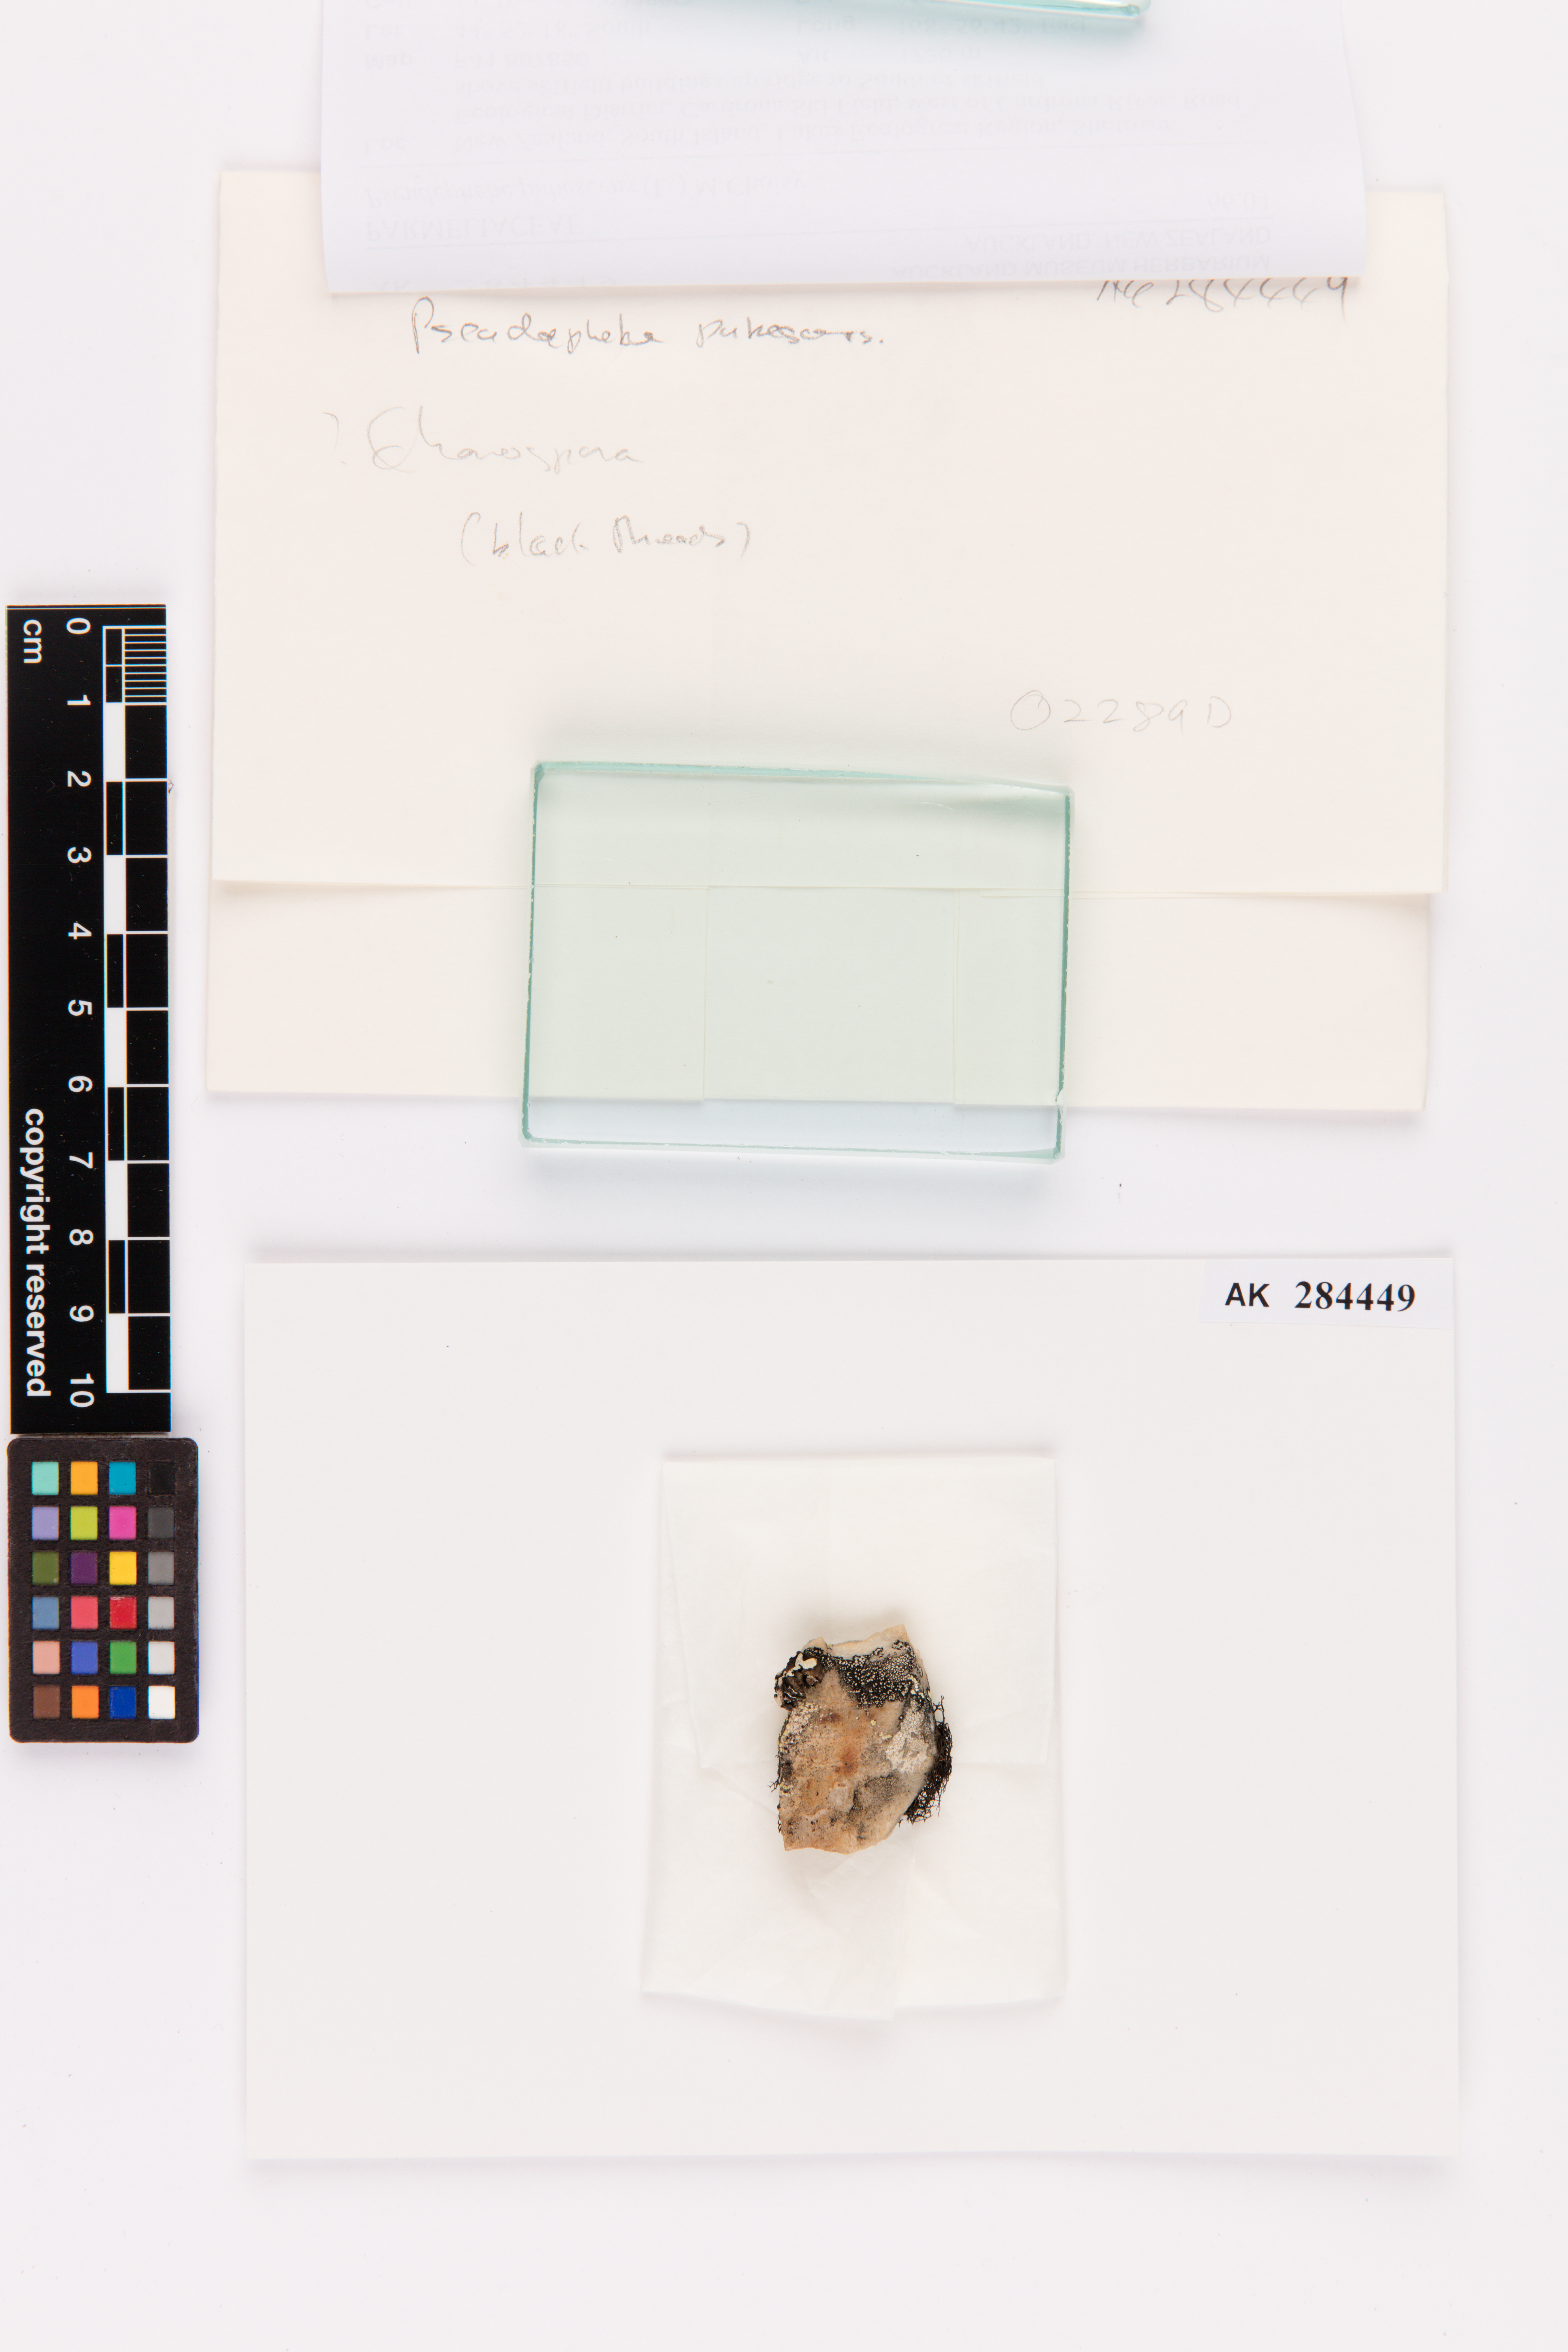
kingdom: Fungi
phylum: Ascomycota
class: Lecanoromycetes
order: Lecanorales
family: Parmeliaceae
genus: Pseudephebe
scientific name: Pseudephebe pubescens
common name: Fine rockwool lichen
